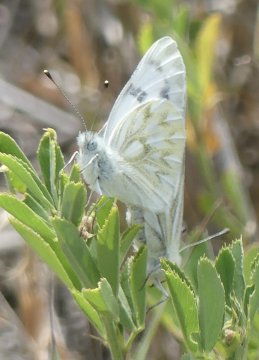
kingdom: Animalia
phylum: Arthropoda
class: Insecta
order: Lepidoptera
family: Pieridae
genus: Pontia
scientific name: Pontia occidentalis
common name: Western White
